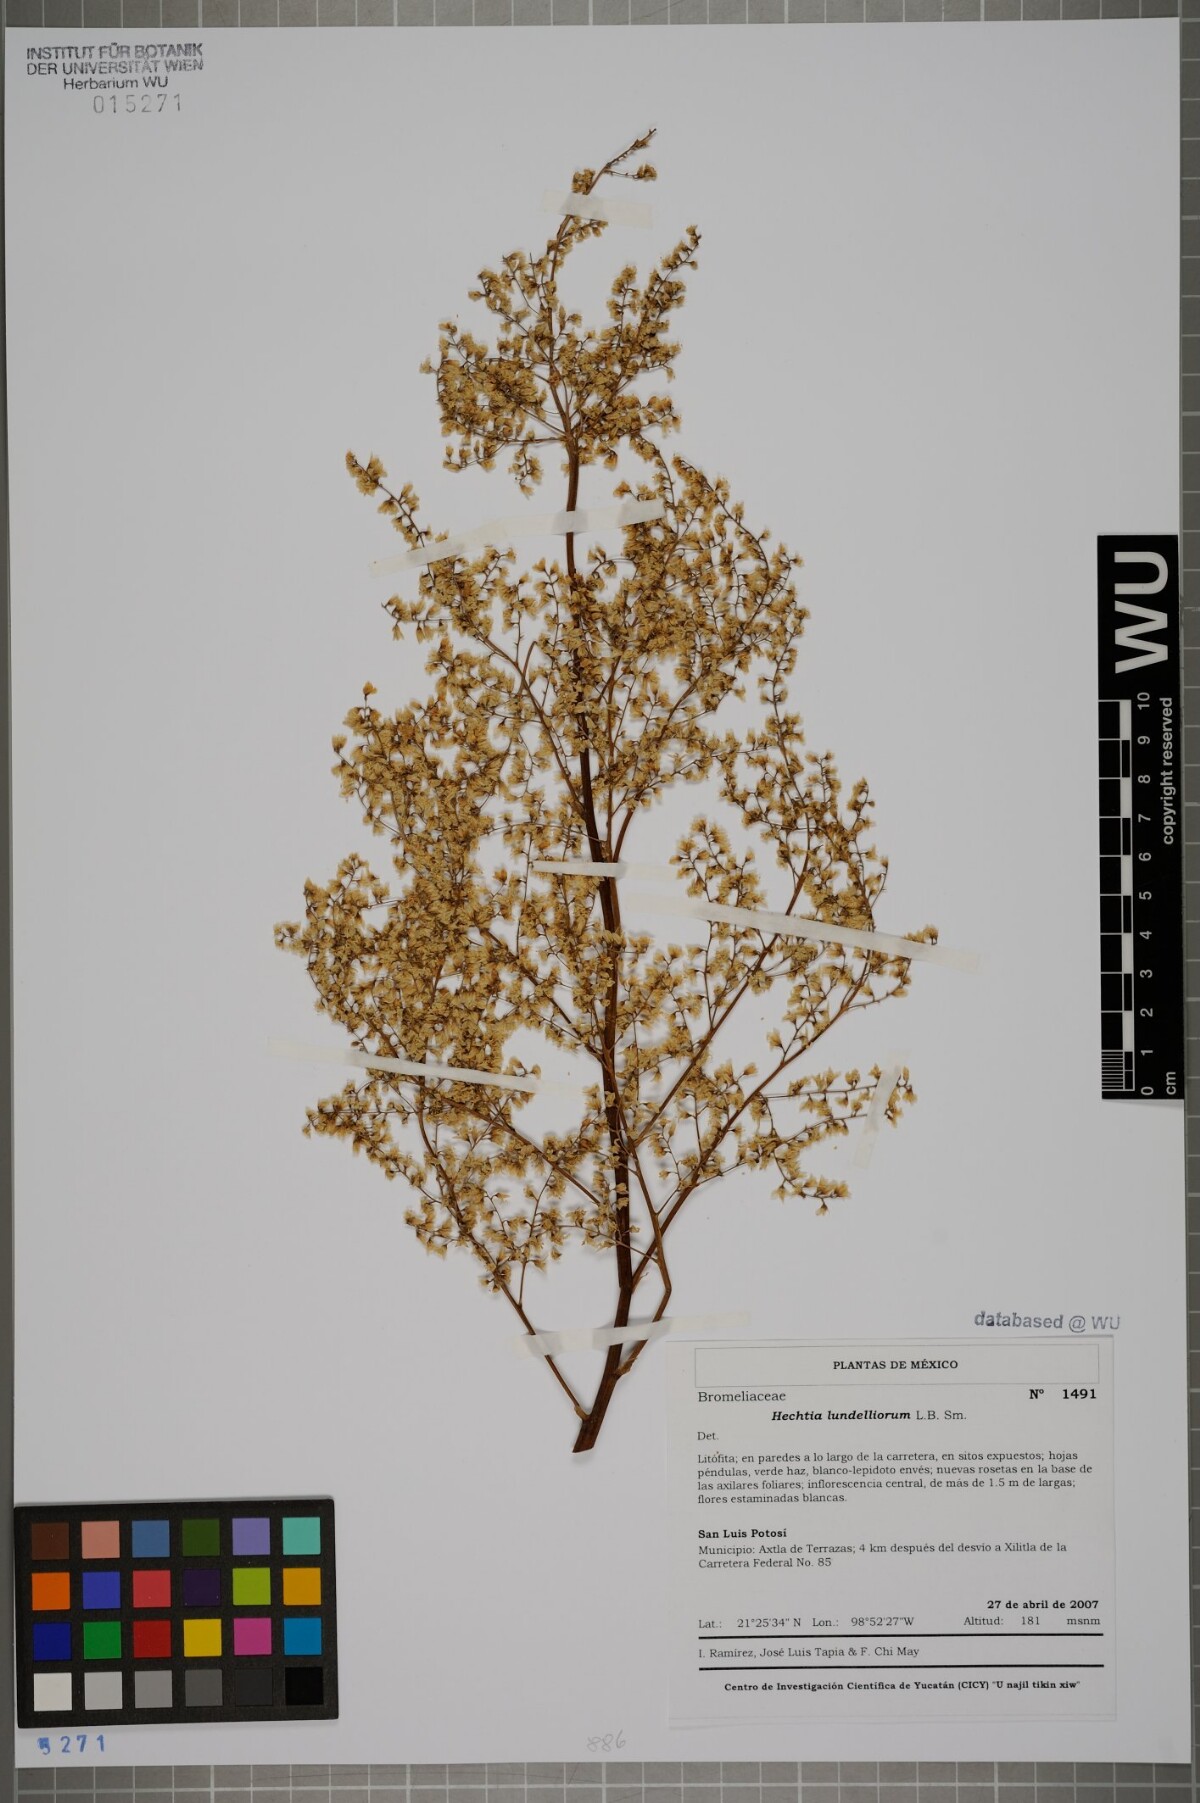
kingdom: Plantae
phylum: Tracheophyta
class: Liliopsida
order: Poales
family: Bromeliaceae
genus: Hechtia
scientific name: Hechtia lundelliorum
